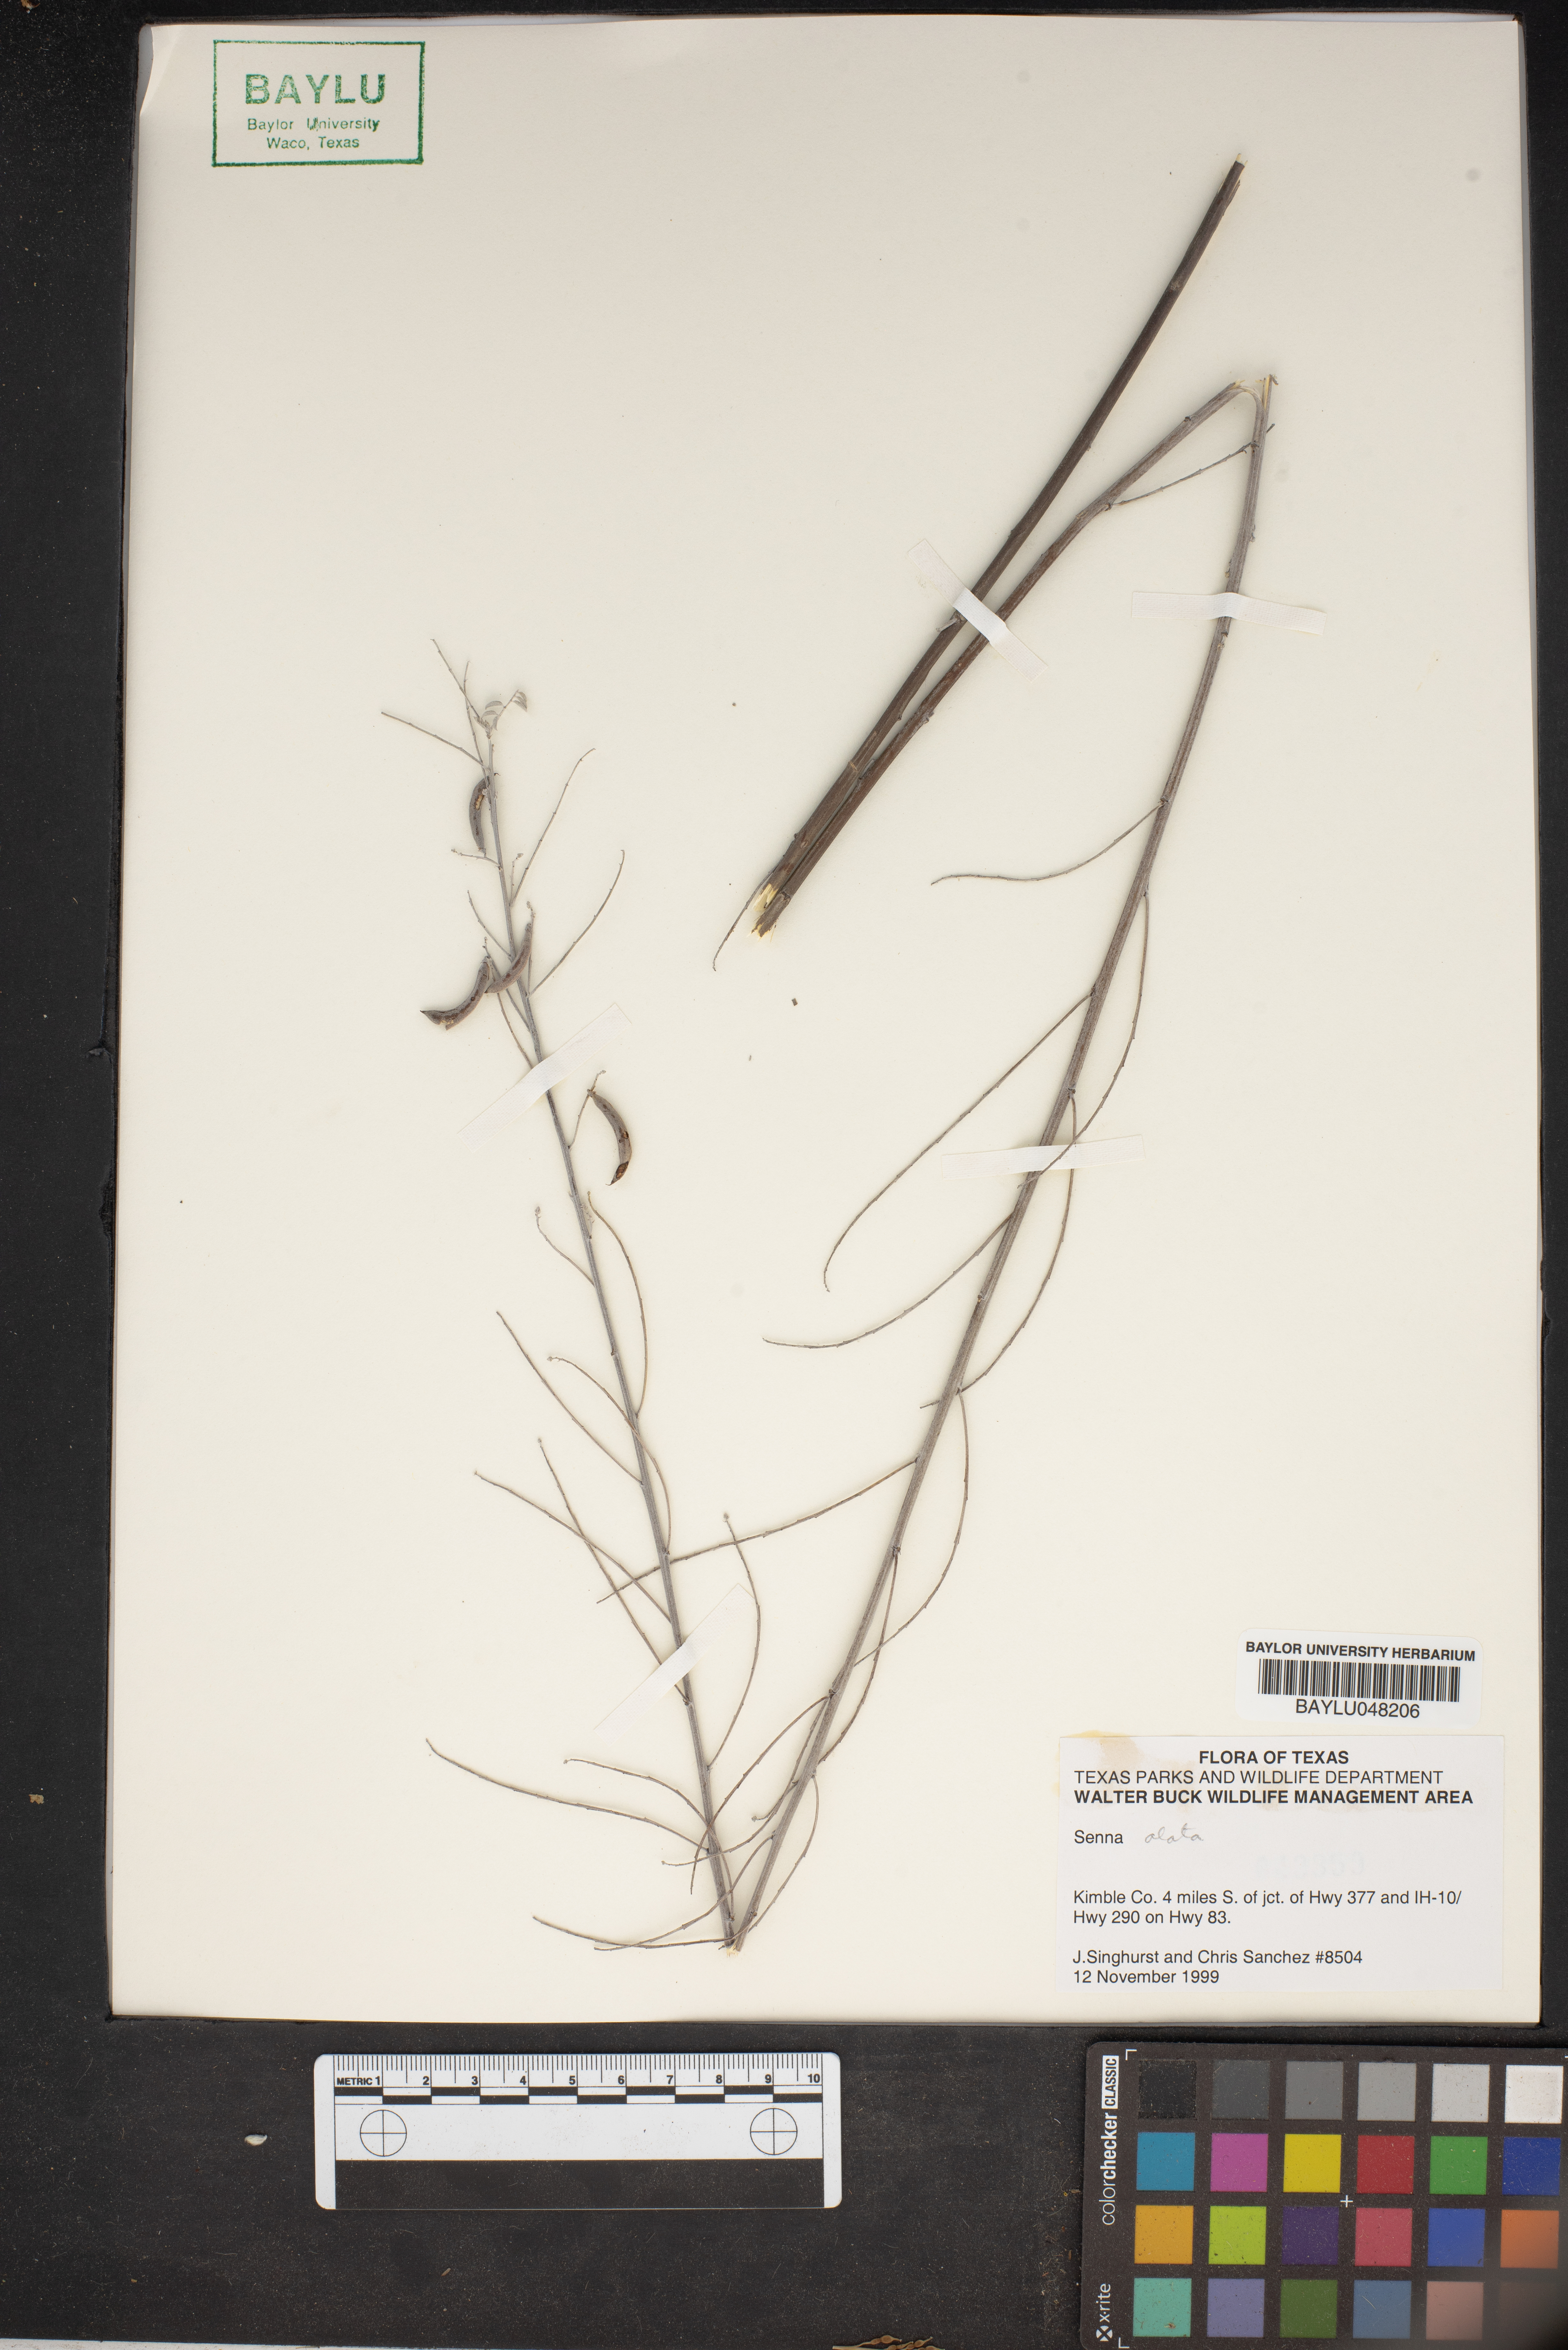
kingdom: Plantae
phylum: Tracheophyta
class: Magnoliopsida
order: Fabales
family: Fabaceae
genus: Senna
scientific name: Senna alata
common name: Emperor's candlesticks
